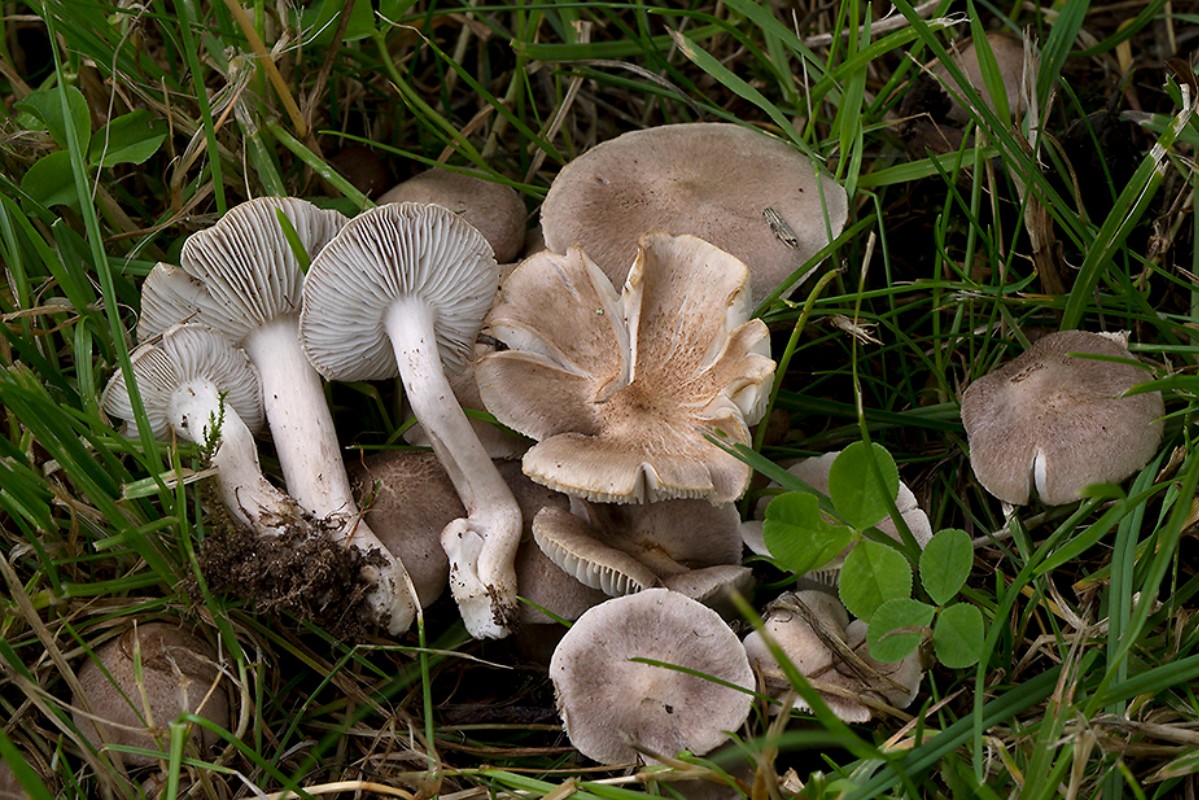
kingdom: Fungi
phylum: Basidiomycota
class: Agaricomycetes
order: Agaricales
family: Tricholomataceae
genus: Tricholoma
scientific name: Tricholoma argyraceum
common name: spids ridderhat
